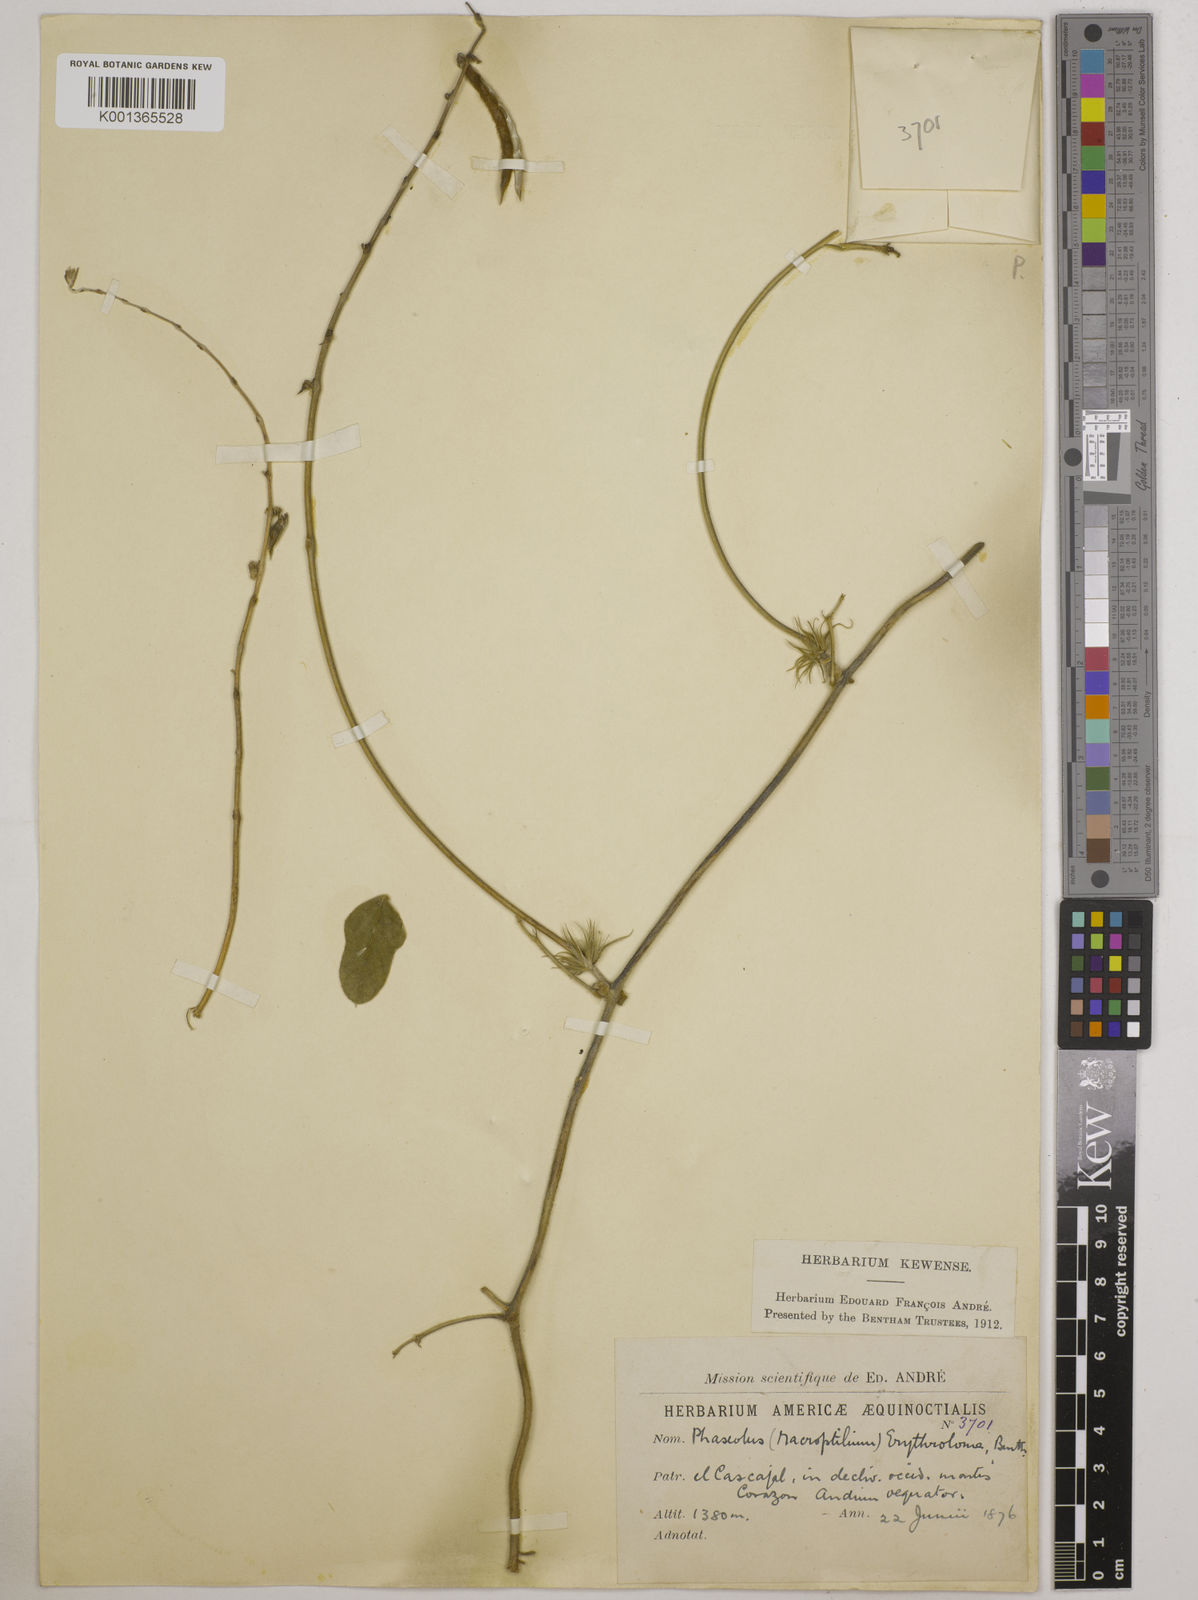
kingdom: Plantae
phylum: Tracheophyta
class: Magnoliopsida
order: Fabales
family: Fabaceae
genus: Macroptilium
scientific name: Macroptilium erythroloma
